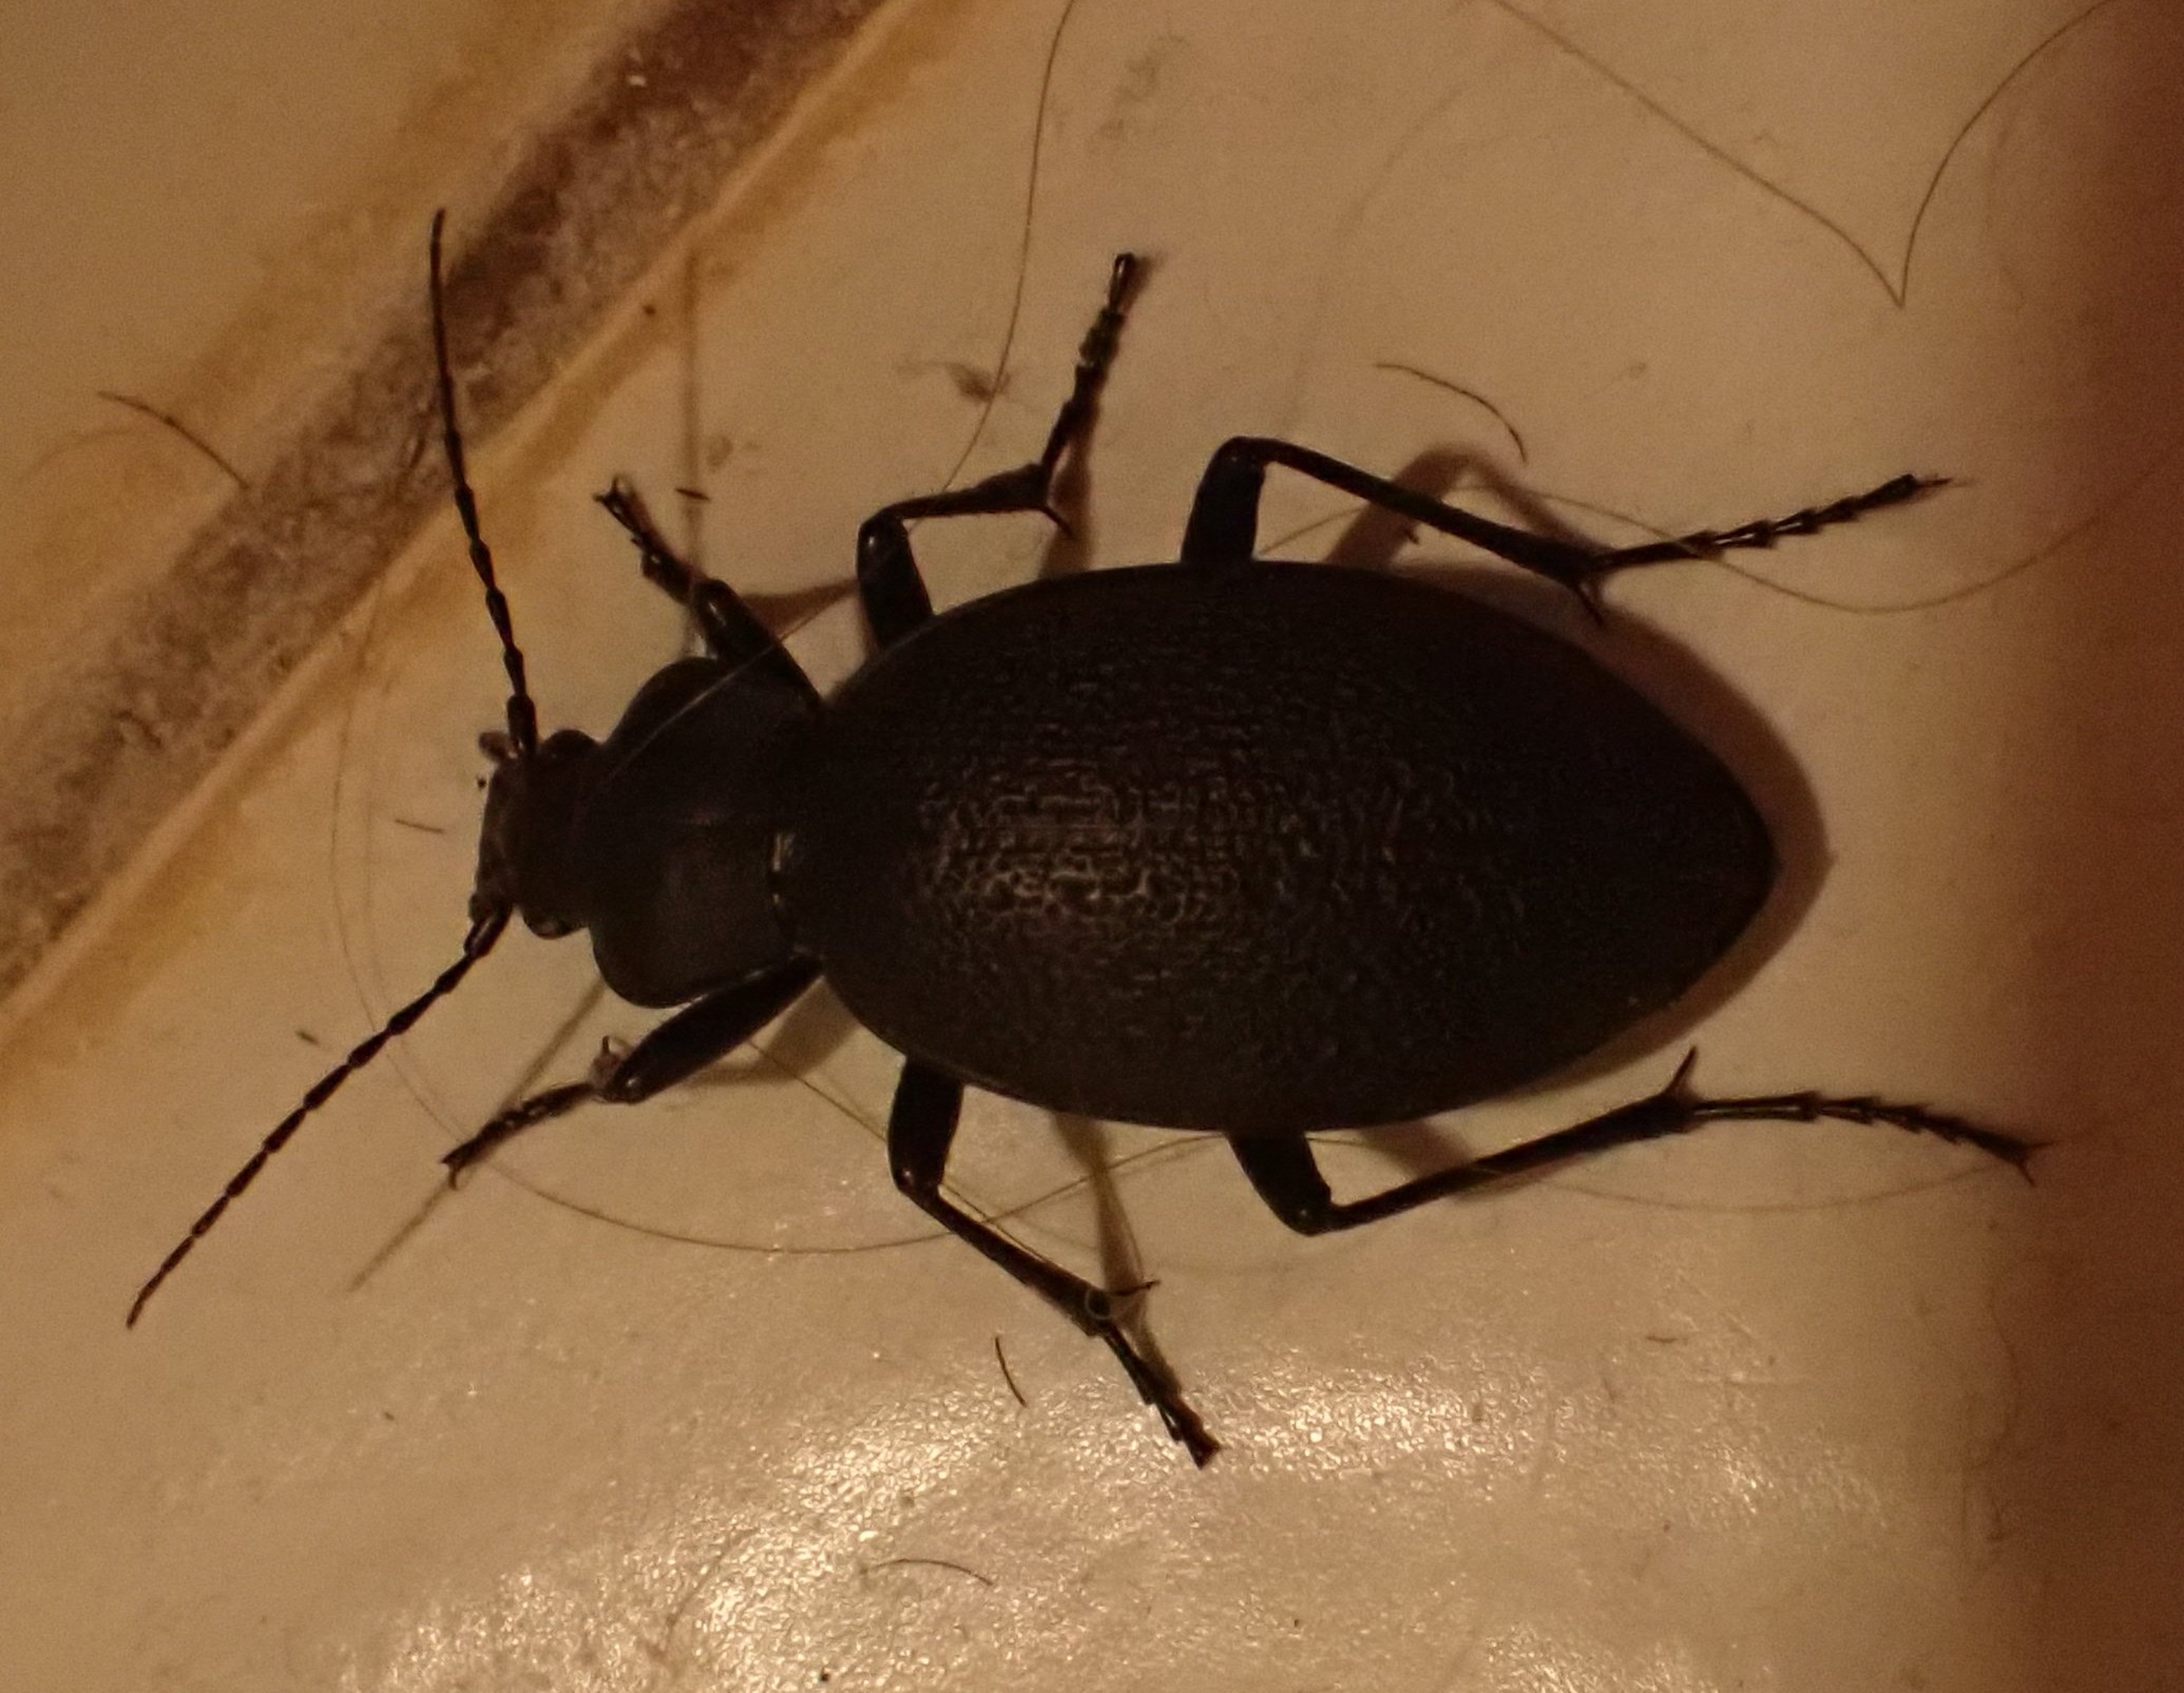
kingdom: Animalia
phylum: Arthropoda
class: Insecta
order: Coleoptera
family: Carabidae
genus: Carabus
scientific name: Carabus coriaceus
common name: Læderløber
